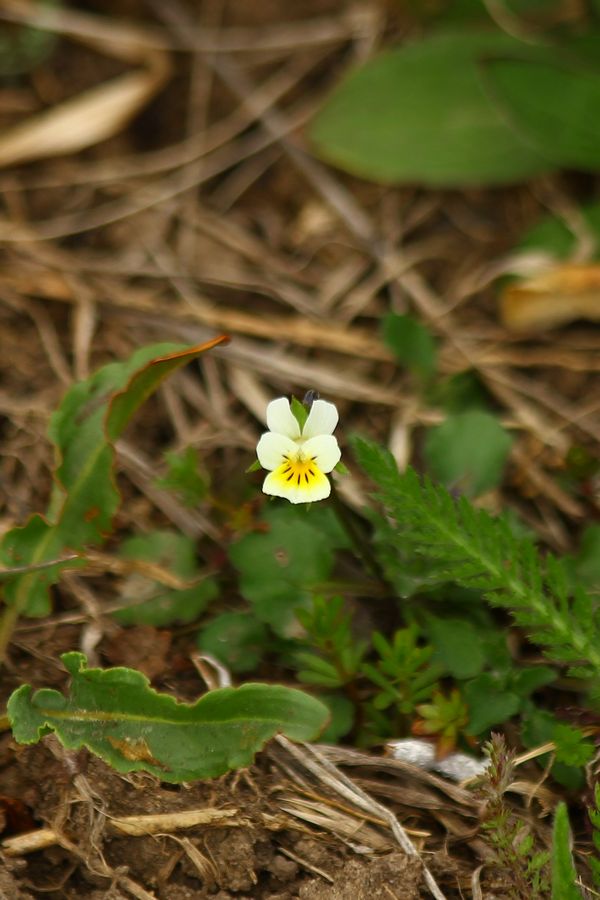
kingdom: Plantae
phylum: Tracheophyta
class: Magnoliopsida
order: Malpighiales
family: Violaceae
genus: Viola
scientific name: Viola arvensis
